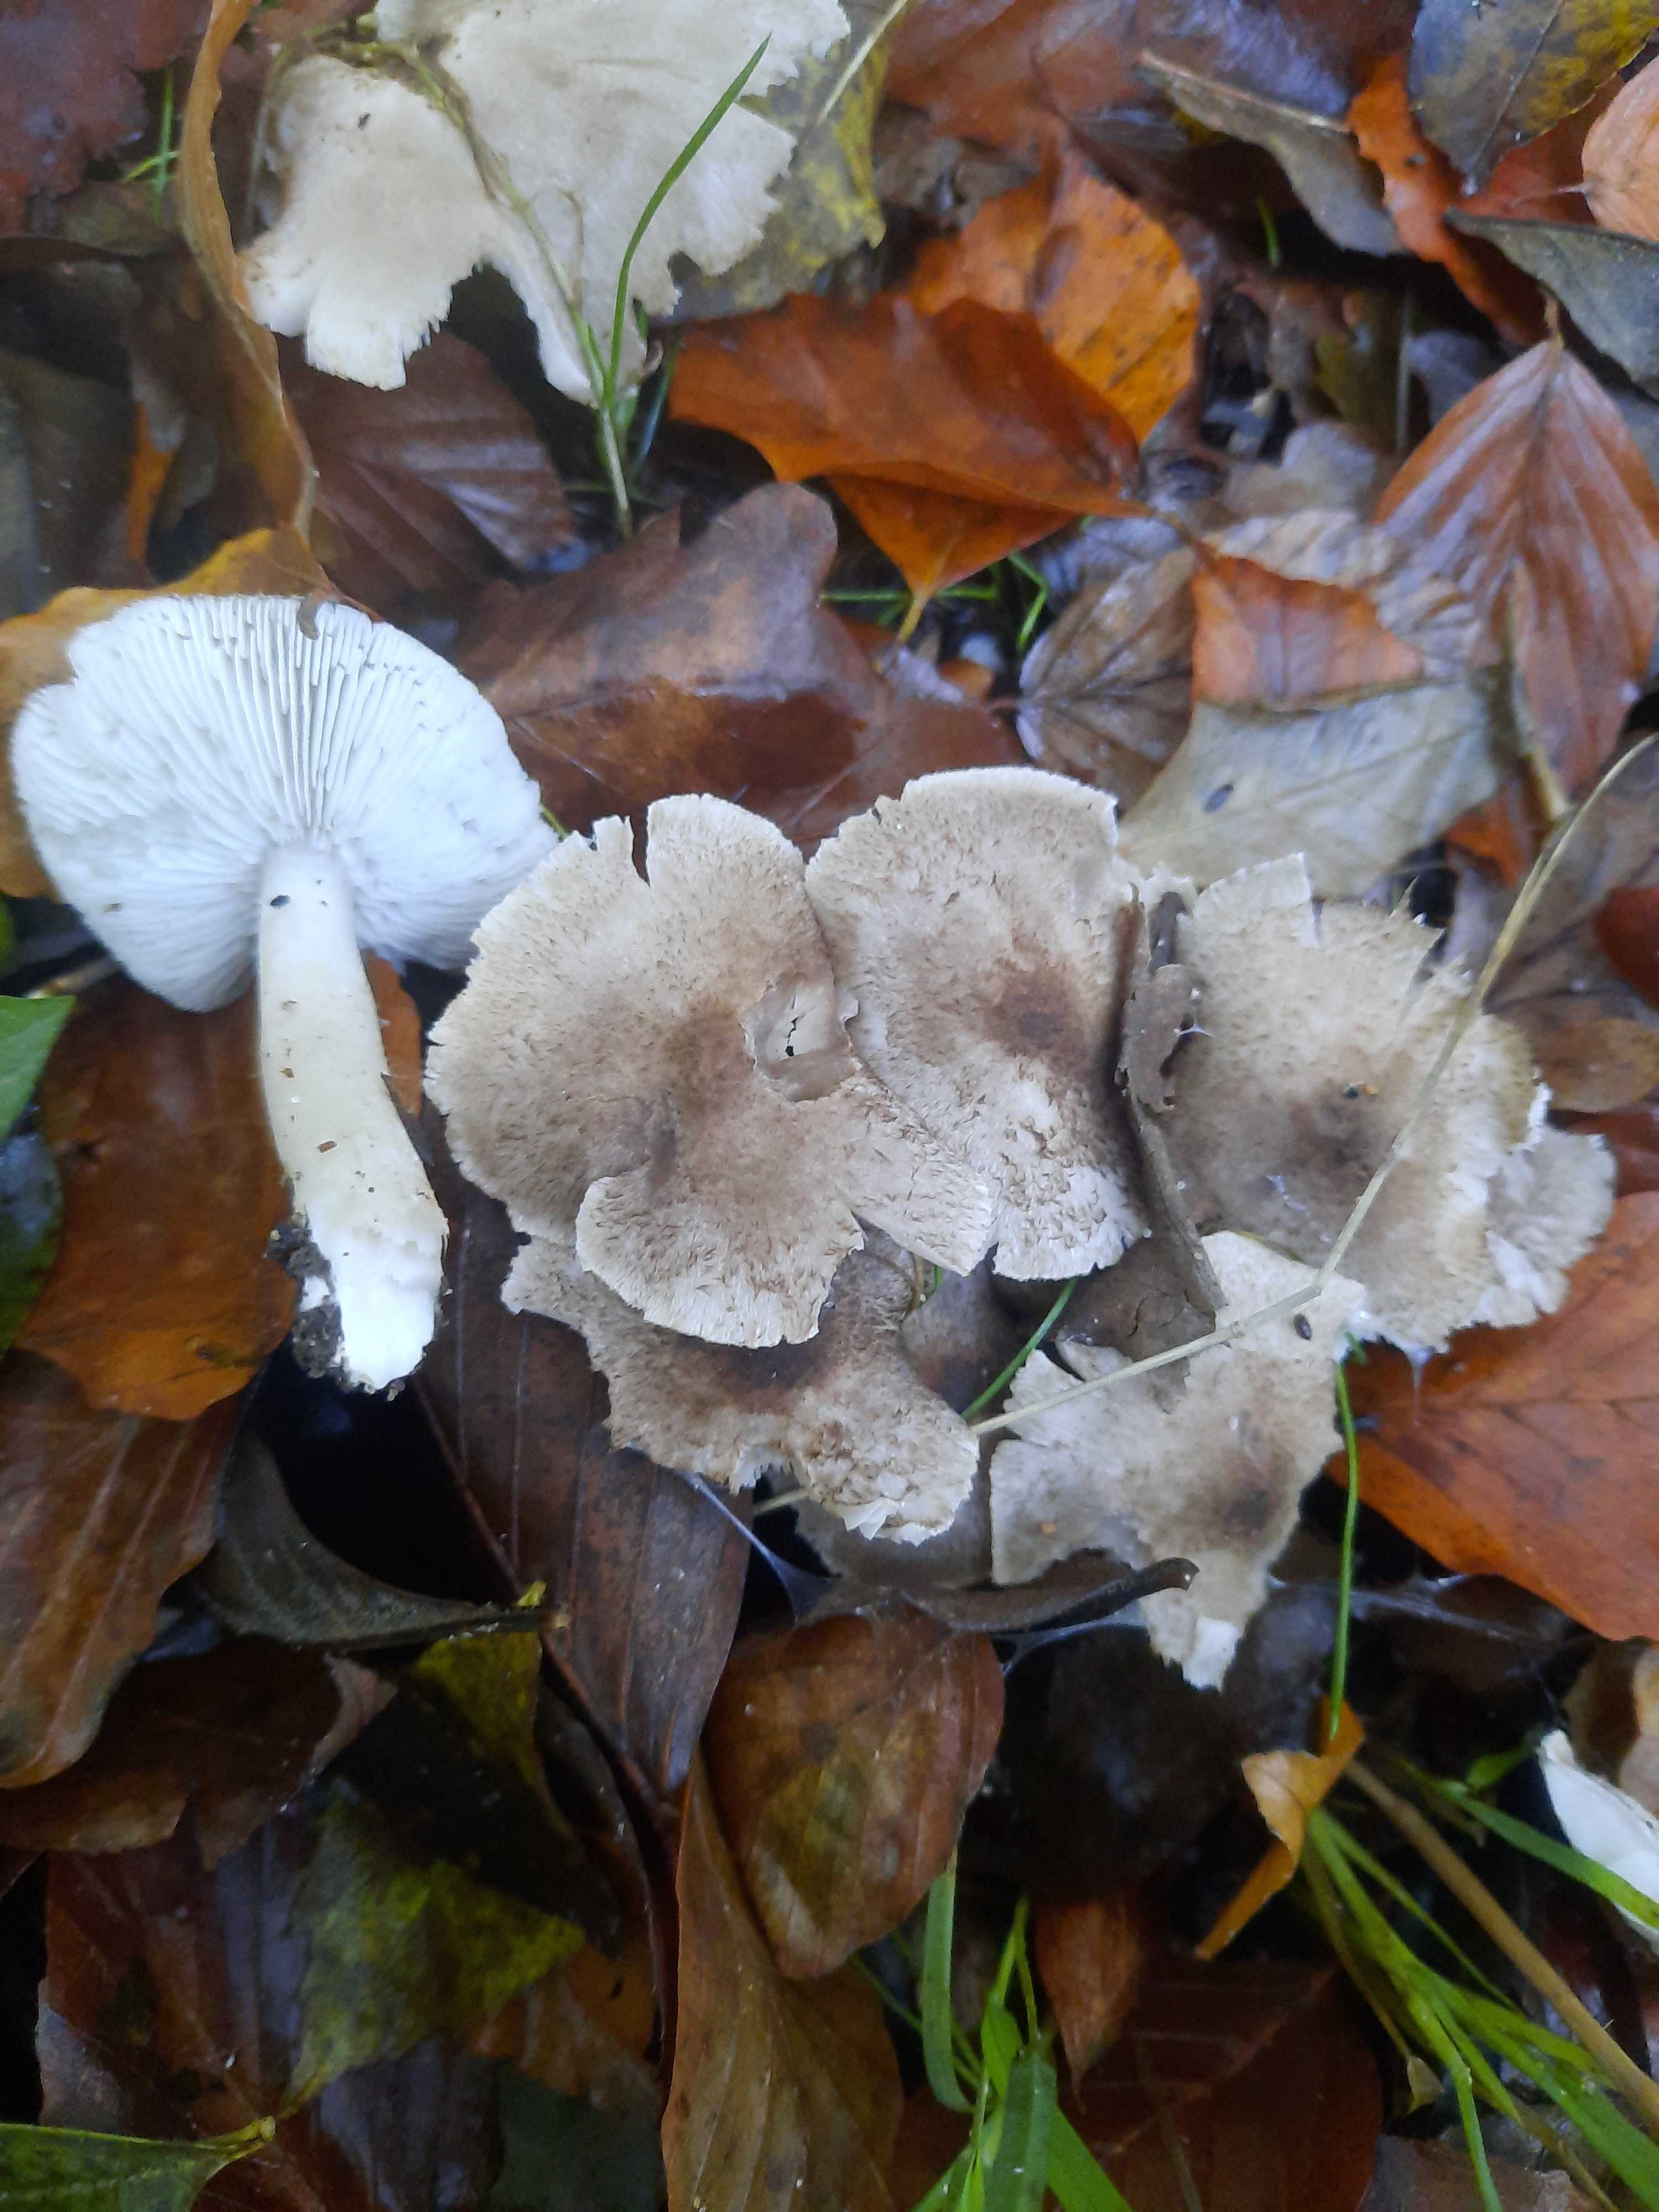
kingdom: Fungi
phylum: Basidiomycota
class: Agaricomycetes
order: Agaricales
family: Tricholomataceae
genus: Tricholoma
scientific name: Tricholoma
